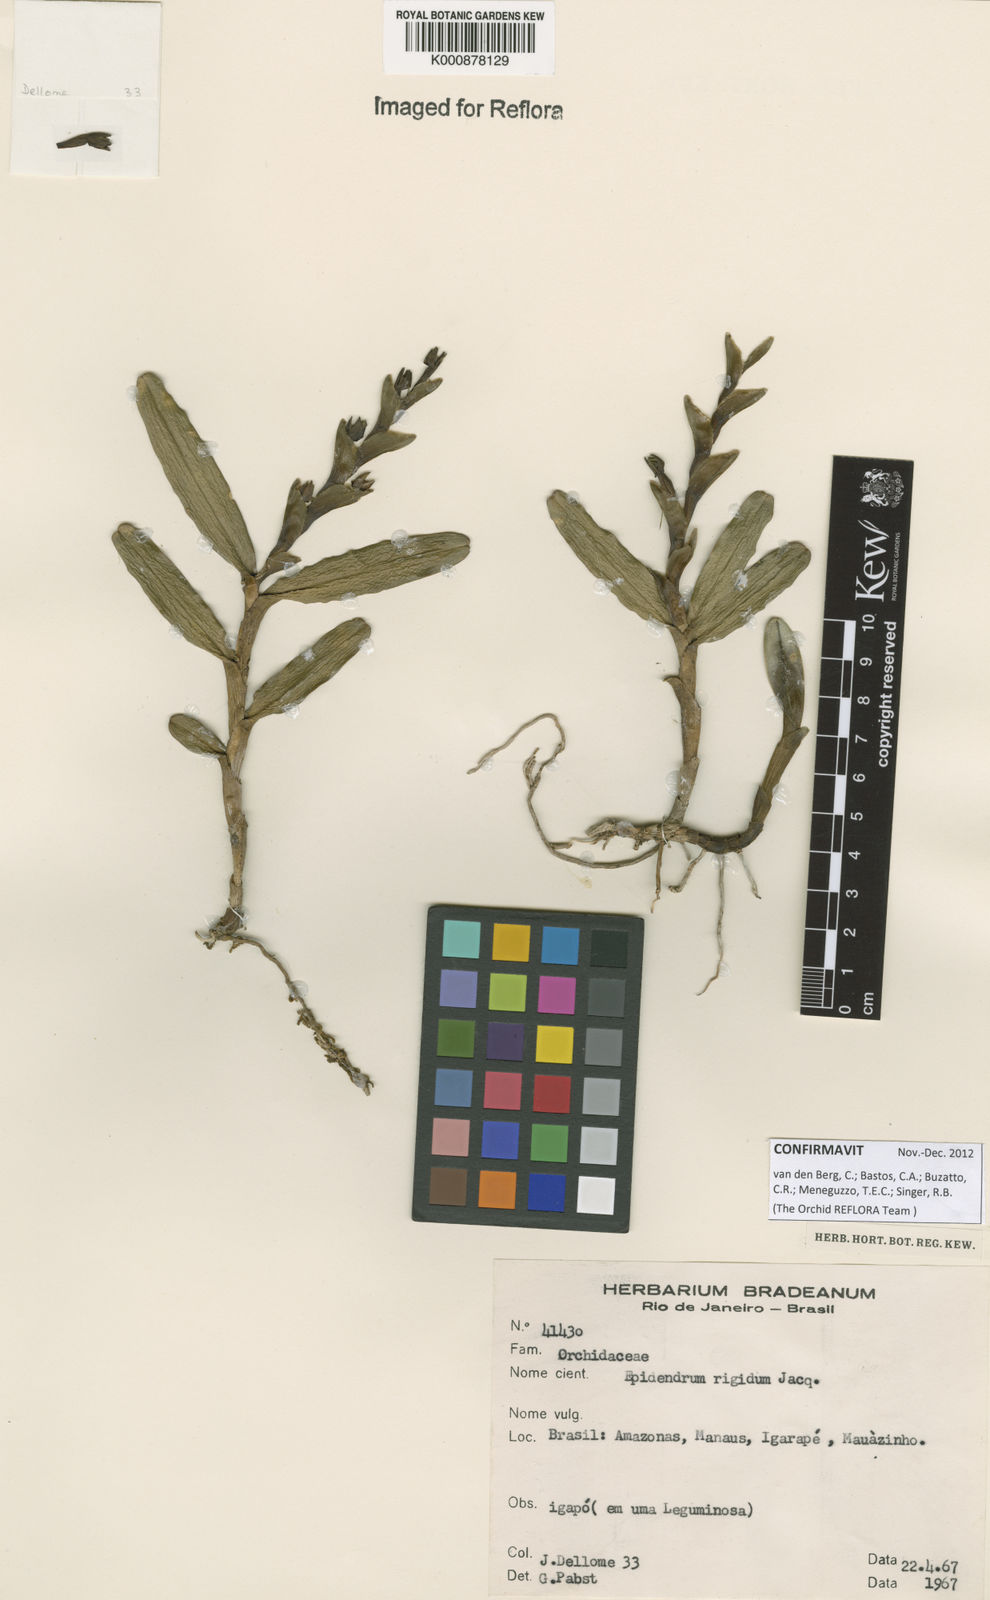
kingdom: Plantae
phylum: Tracheophyta
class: Liliopsida
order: Asparagales
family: Orchidaceae
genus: Epidendrum
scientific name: Epidendrum rigidum
